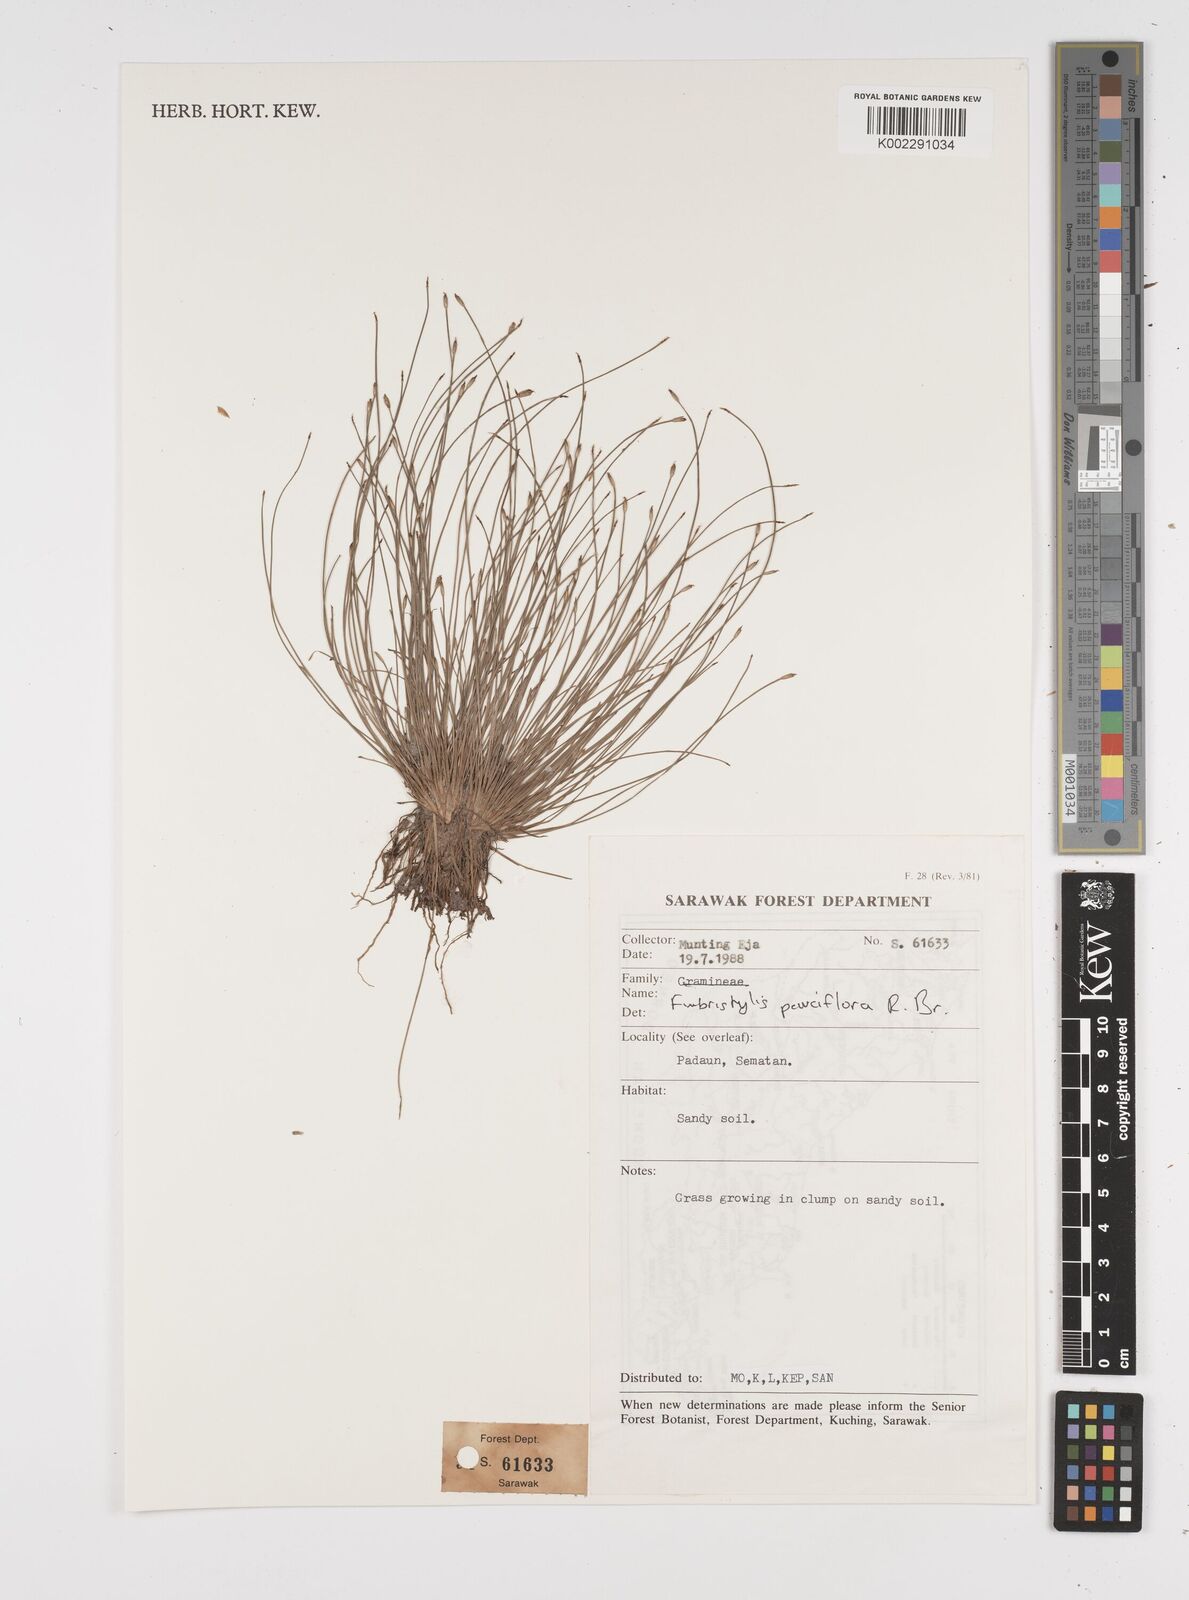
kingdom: Plantae
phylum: Tracheophyta
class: Liliopsida
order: Poales
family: Cyperaceae
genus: Fimbristylis
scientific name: Fimbristylis pauciflora
